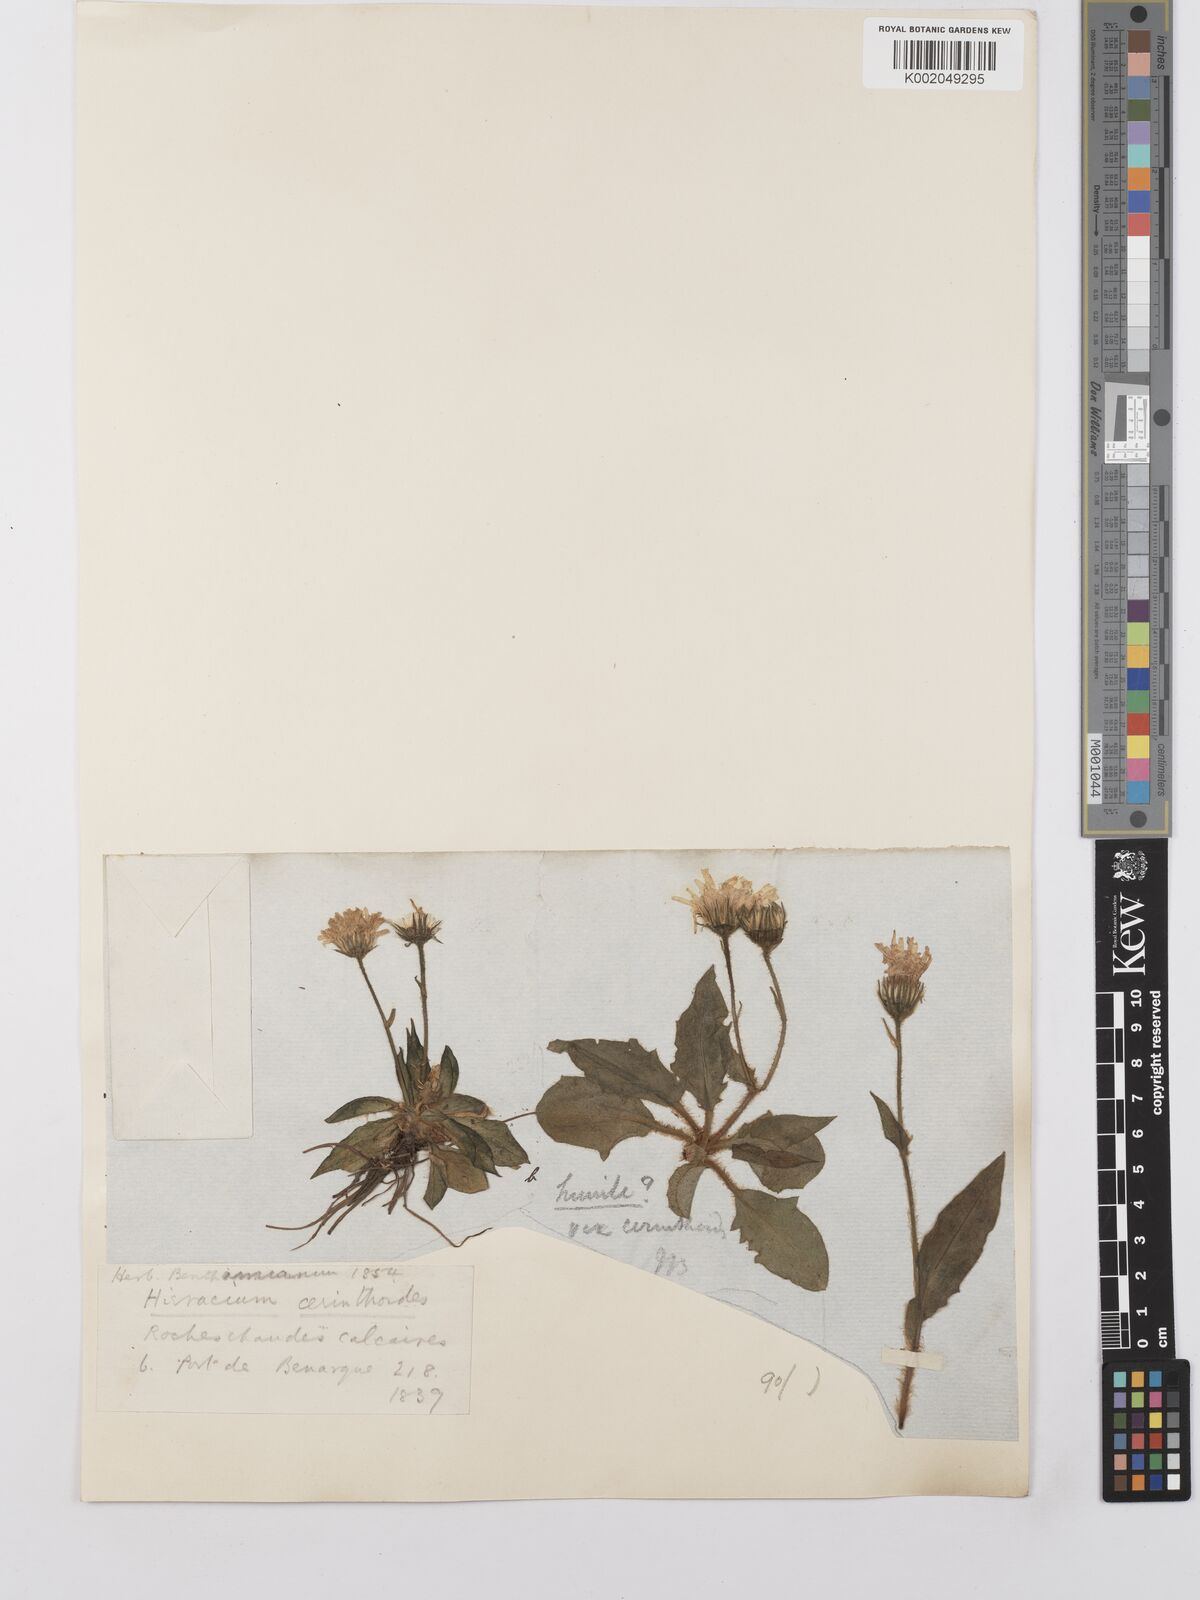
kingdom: Plantae
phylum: Tracheophyta
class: Magnoliopsida
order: Asterales
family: Asteraceae
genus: Hieracium
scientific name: Hieracium
